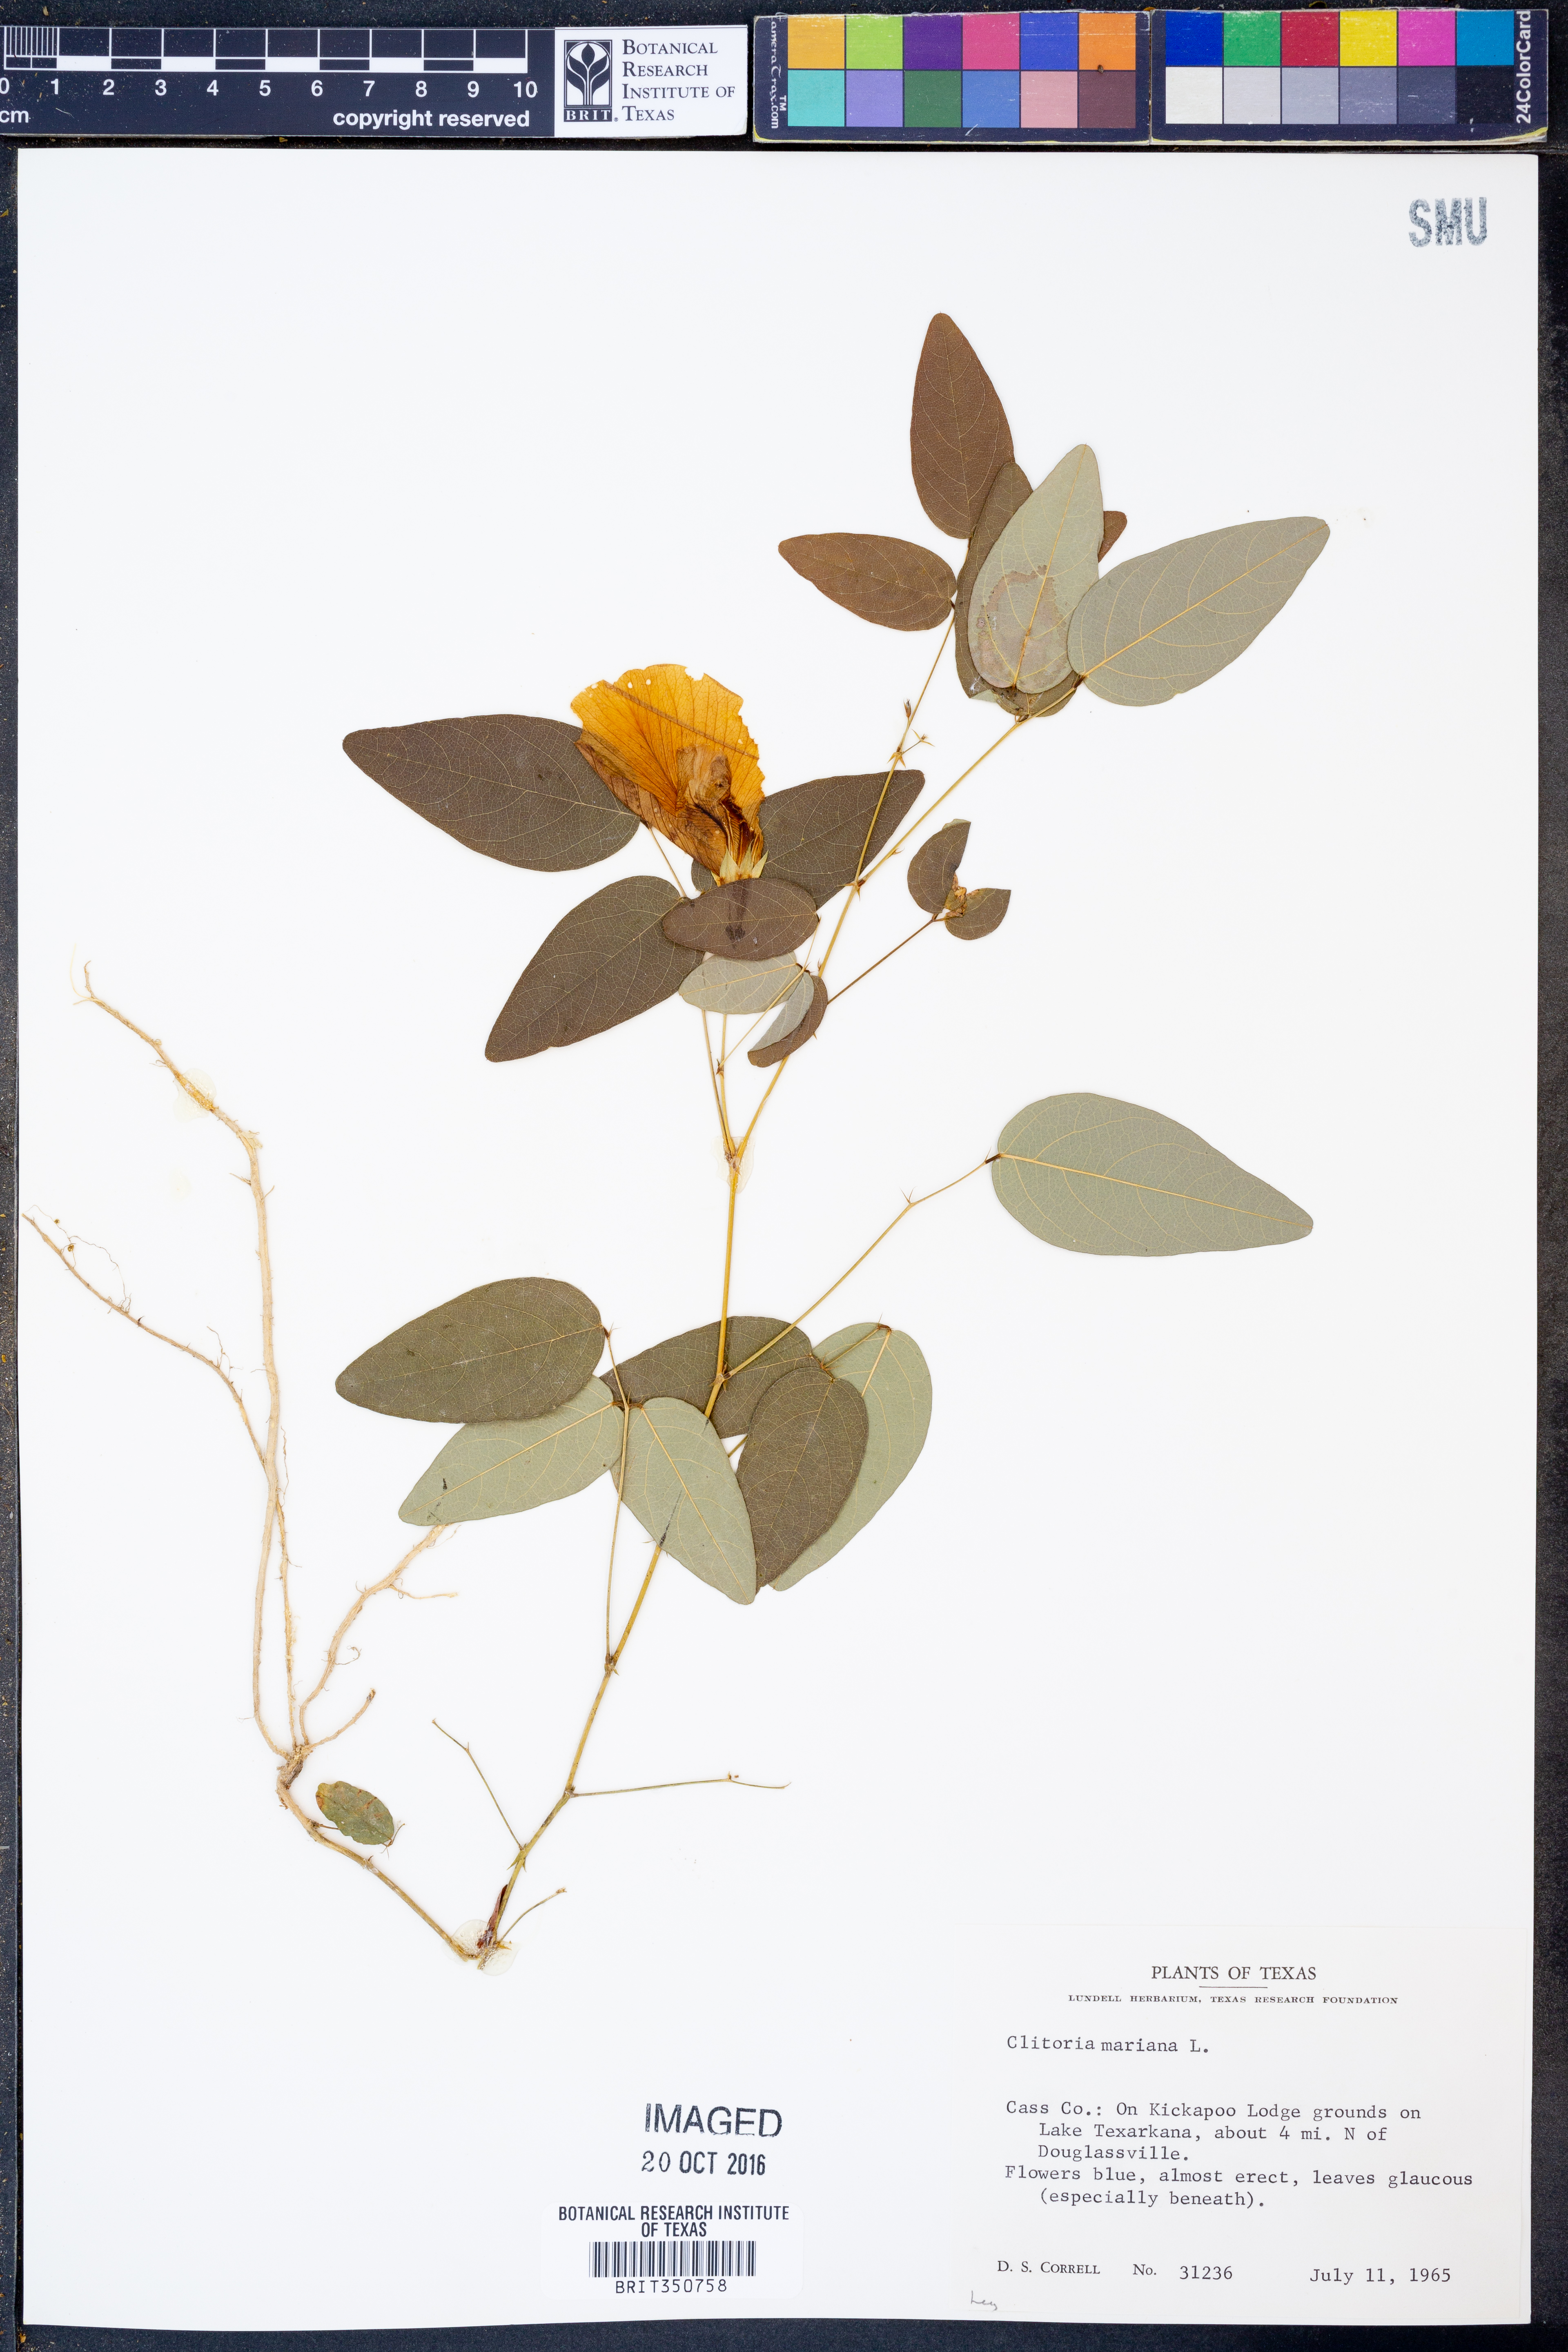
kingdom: Plantae
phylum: Tracheophyta
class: Magnoliopsida
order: Fabales
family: Fabaceae
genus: Clitoria
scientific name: Clitoria mariana
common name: Butterfly-pea
